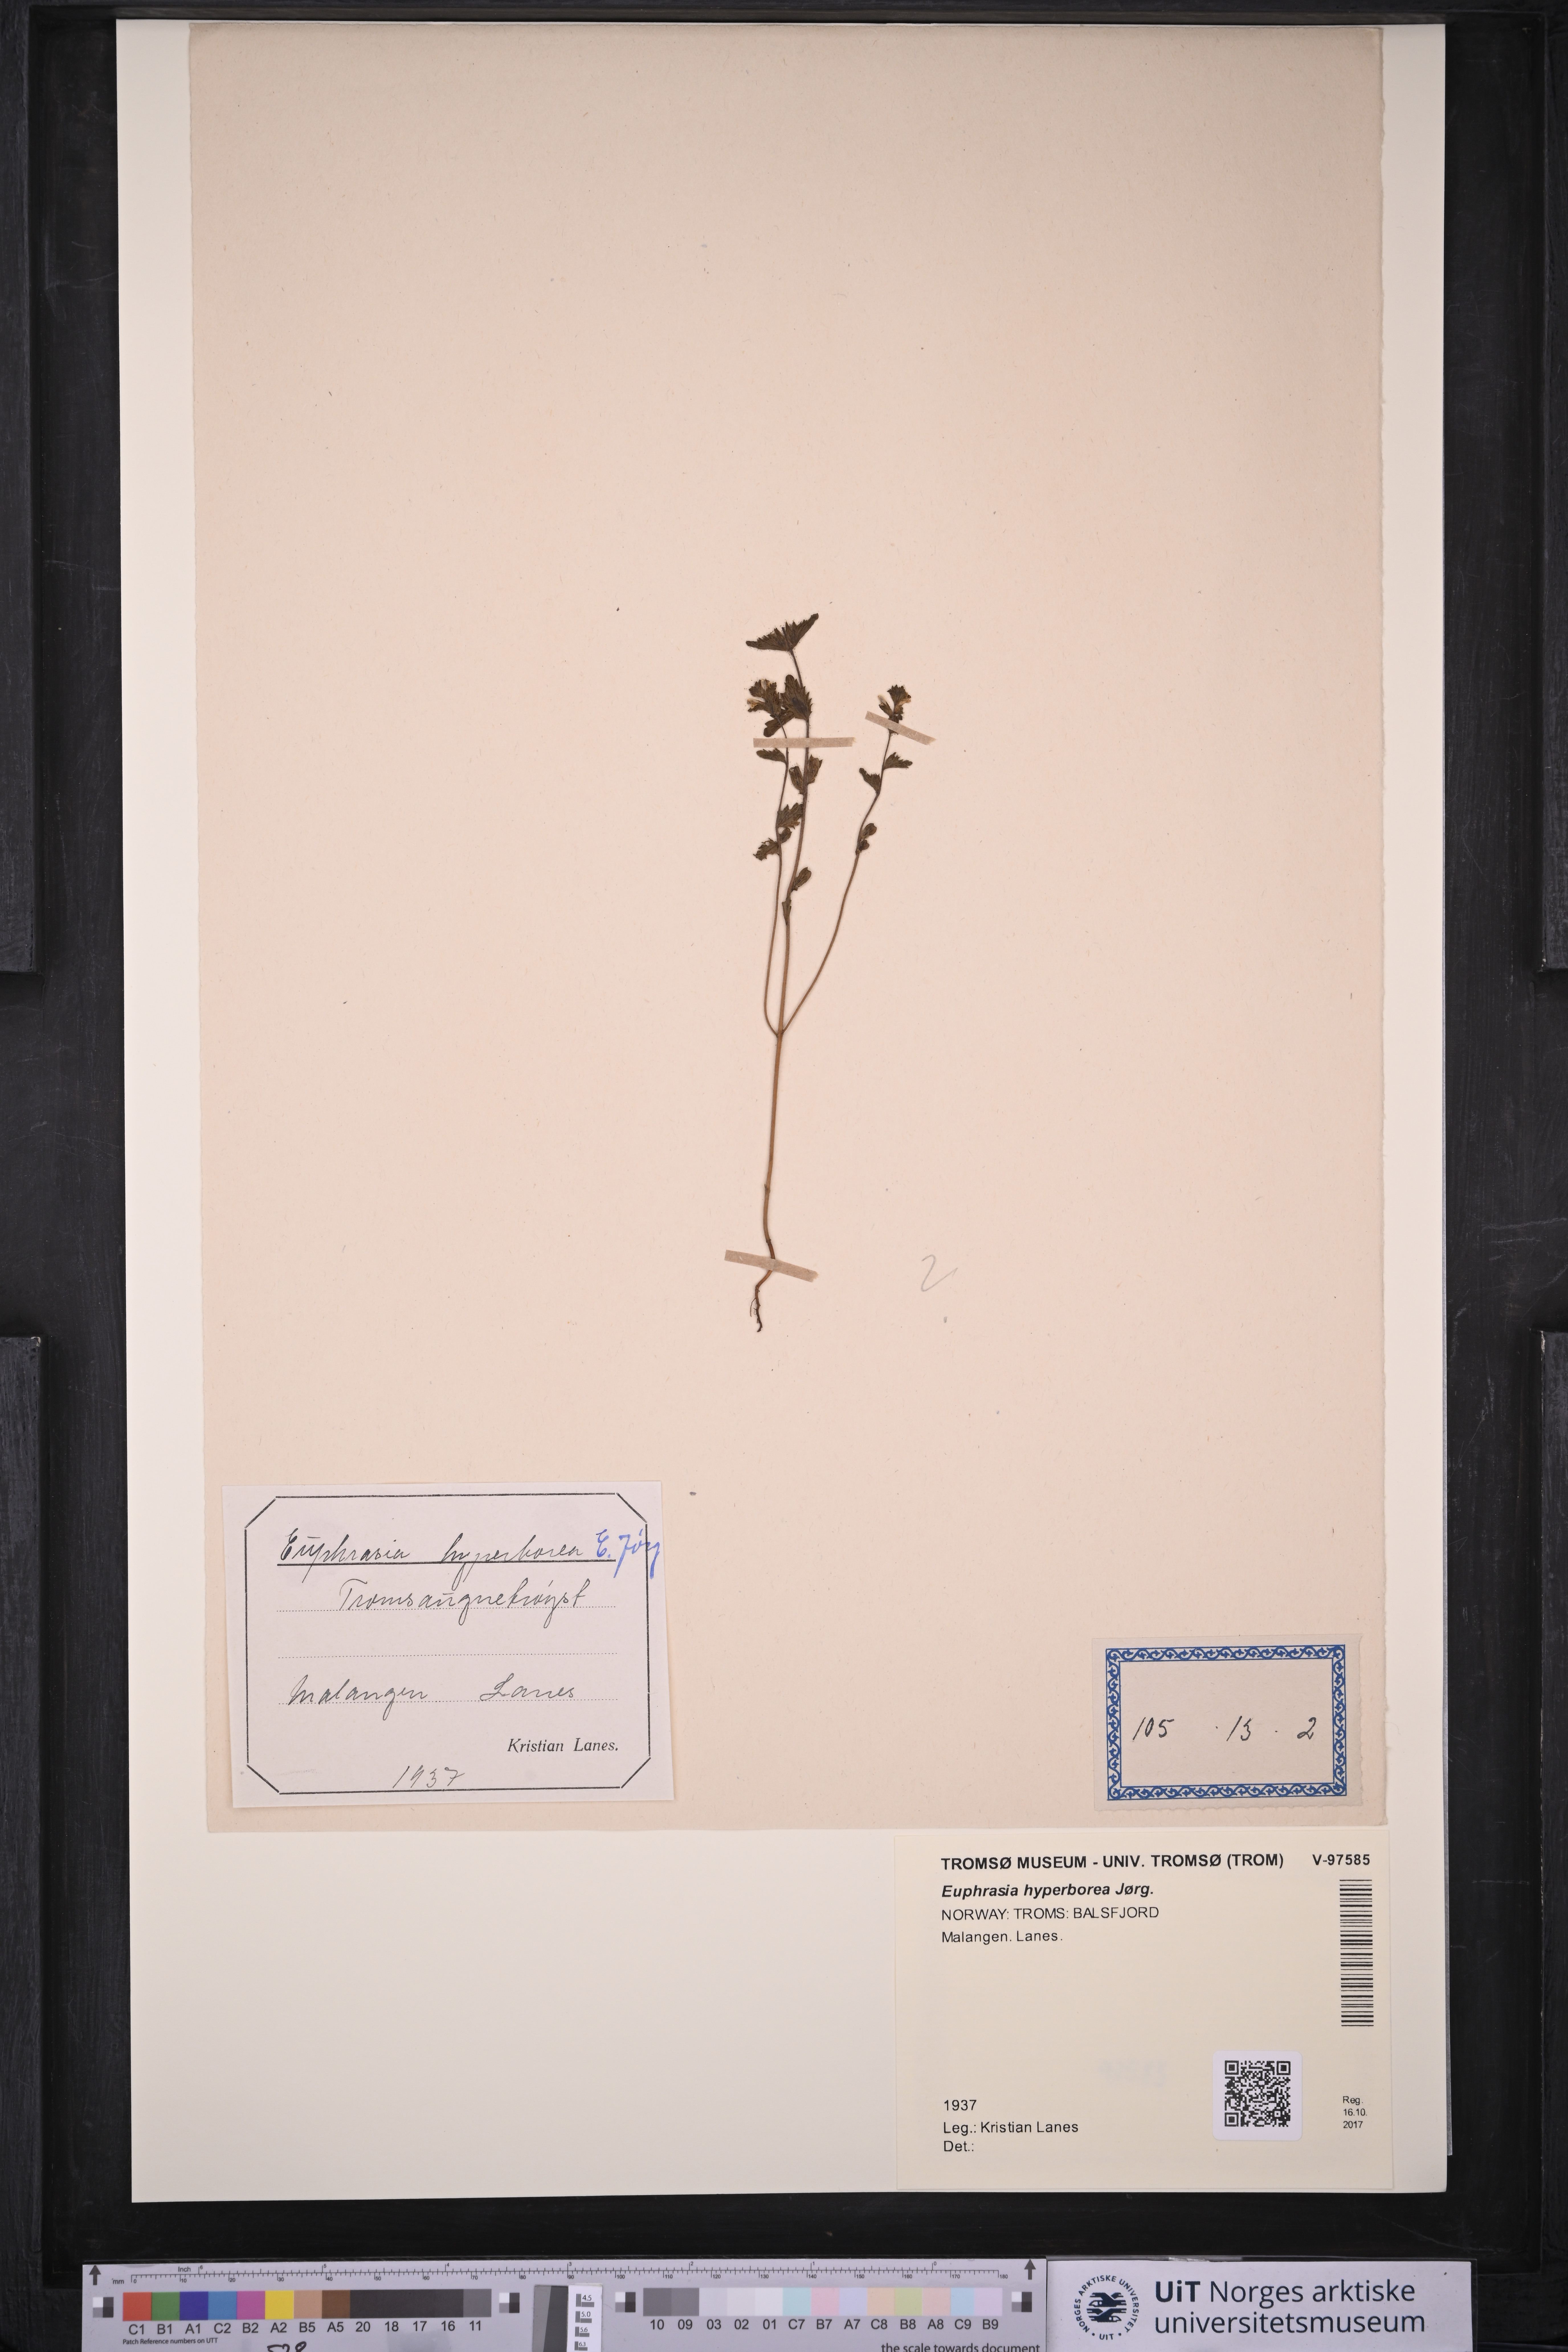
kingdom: Plantae
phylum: Tracheophyta
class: Magnoliopsida
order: Lamiales
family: Orobanchaceae
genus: Euphrasia
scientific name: Euphrasia hyperborea
